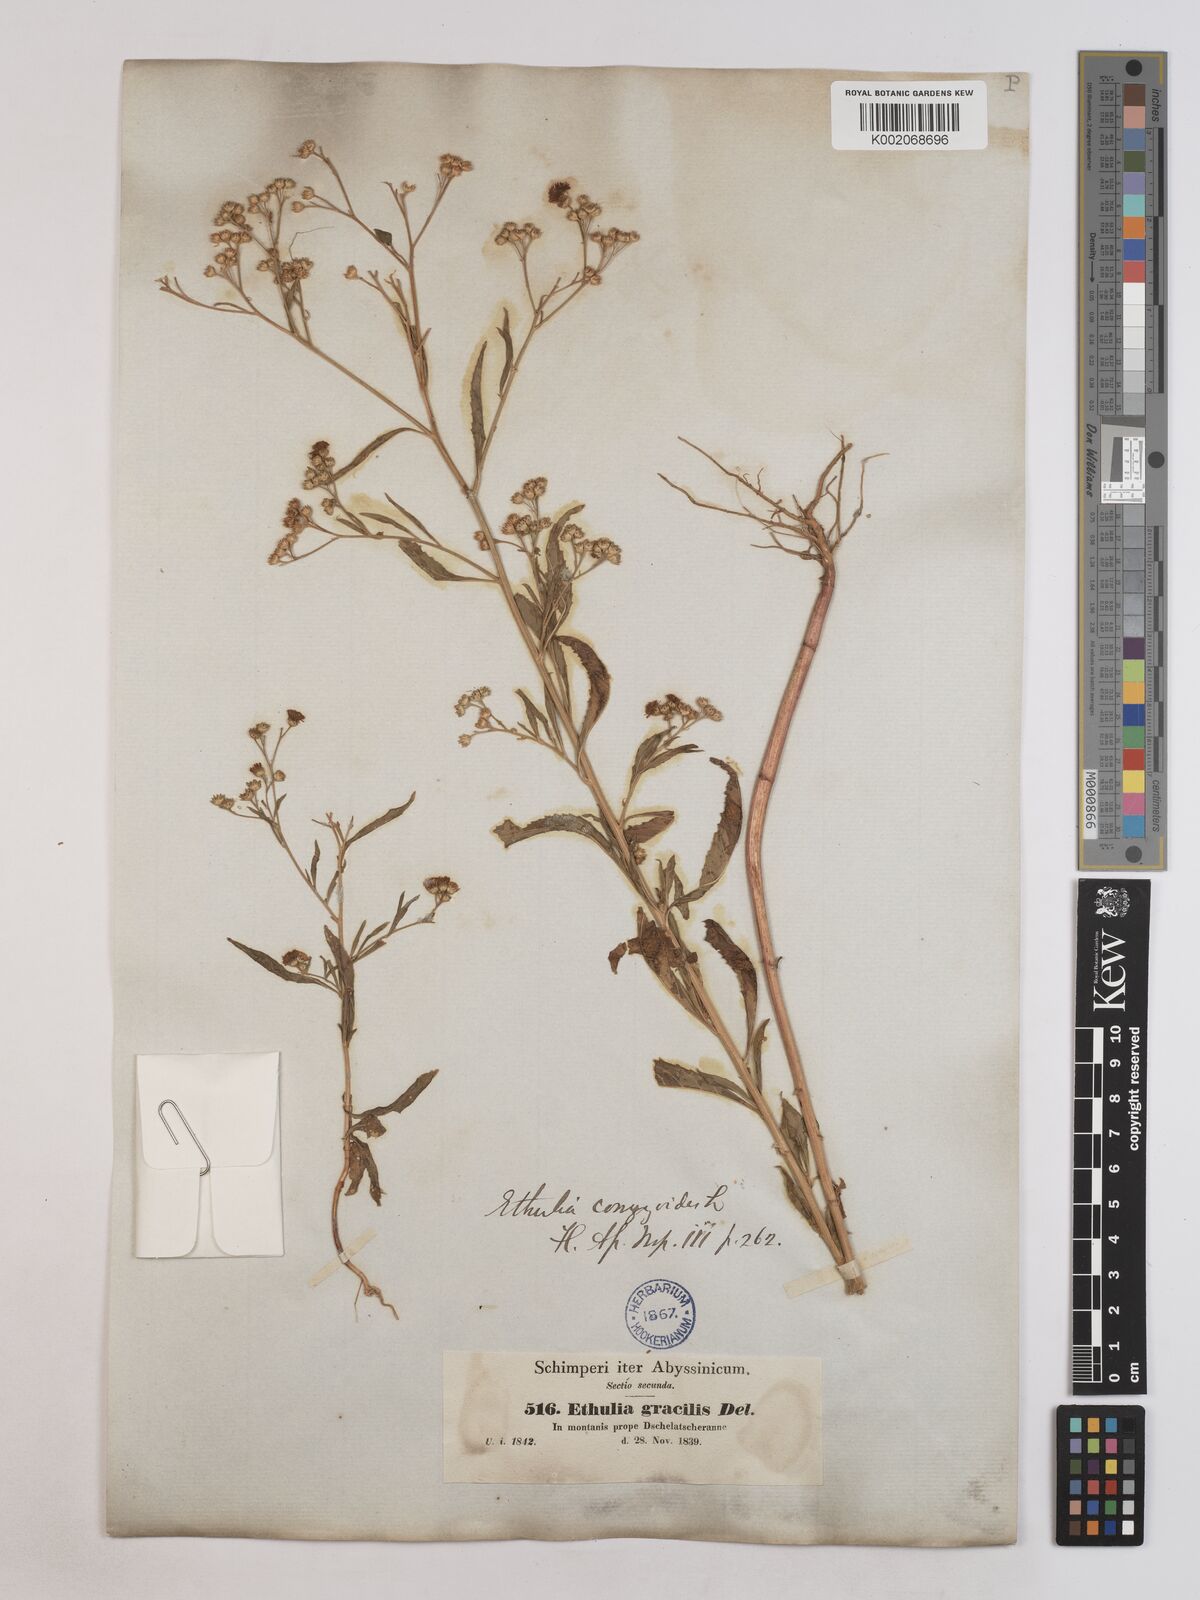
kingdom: Plantae
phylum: Tracheophyta
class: Magnoliopsida
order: Asterales
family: Asteraceae
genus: Ethulia
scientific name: Ethulia gracilis
